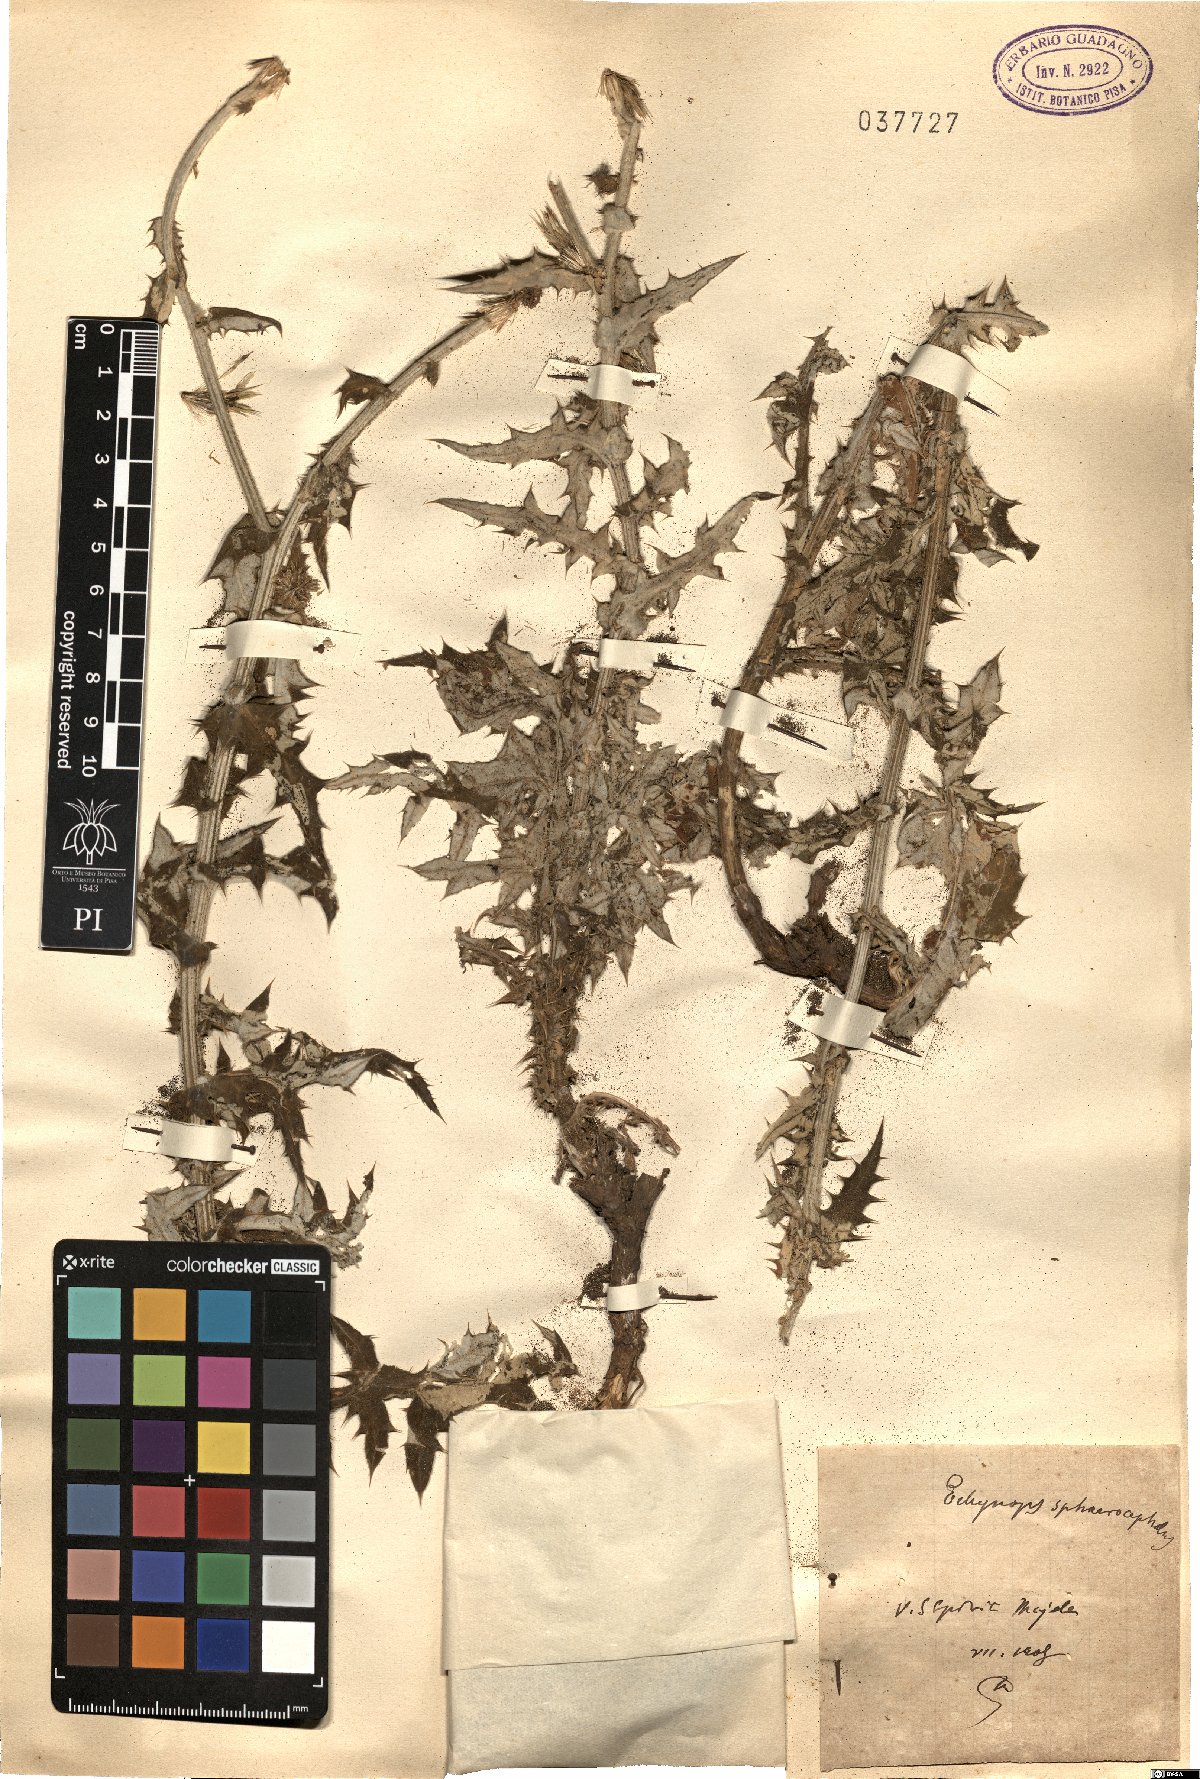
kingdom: Plantae
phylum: Tracheophyta
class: Magnoliopsida
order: Asterales
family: Asteraceae
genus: Echinops
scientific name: Echinops sphaerocephalus
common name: Glandular globe-thistle
